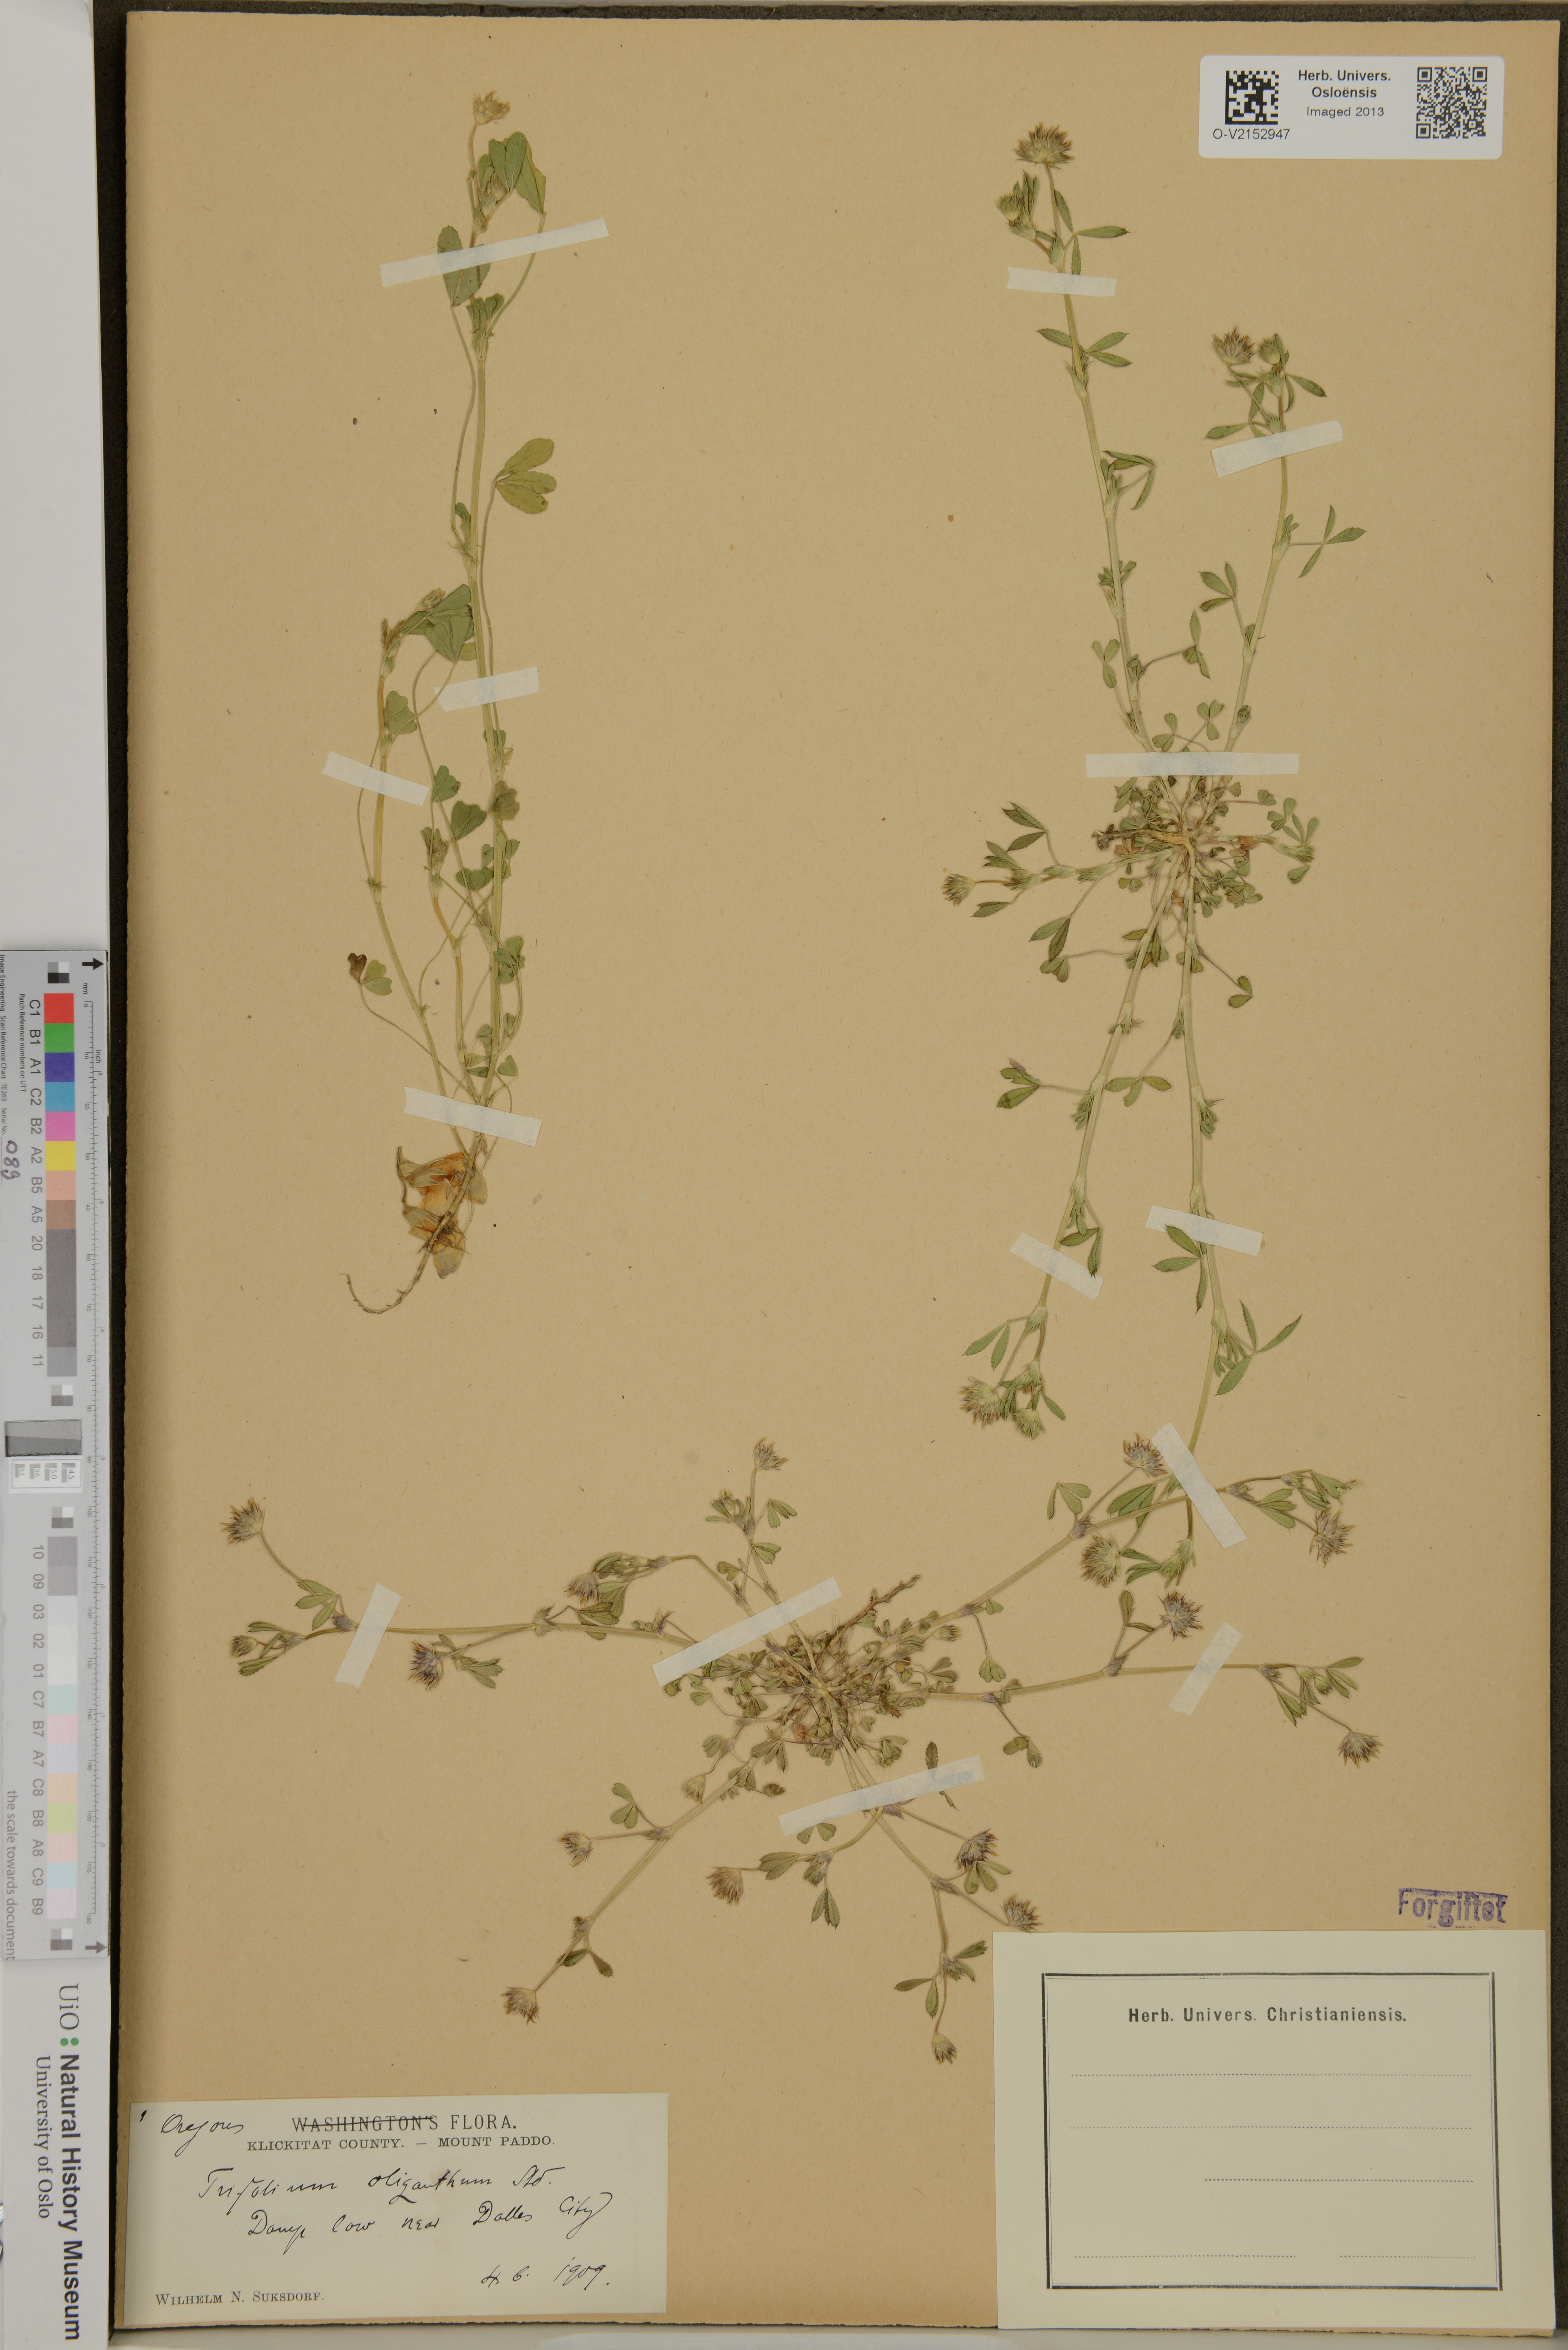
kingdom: Plantae
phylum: Tracheophyta
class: Magnoliopsida
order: Fabales
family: Fabaceae
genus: Trifolium
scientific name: Trifolium oliganthum
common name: Few-flower clover
